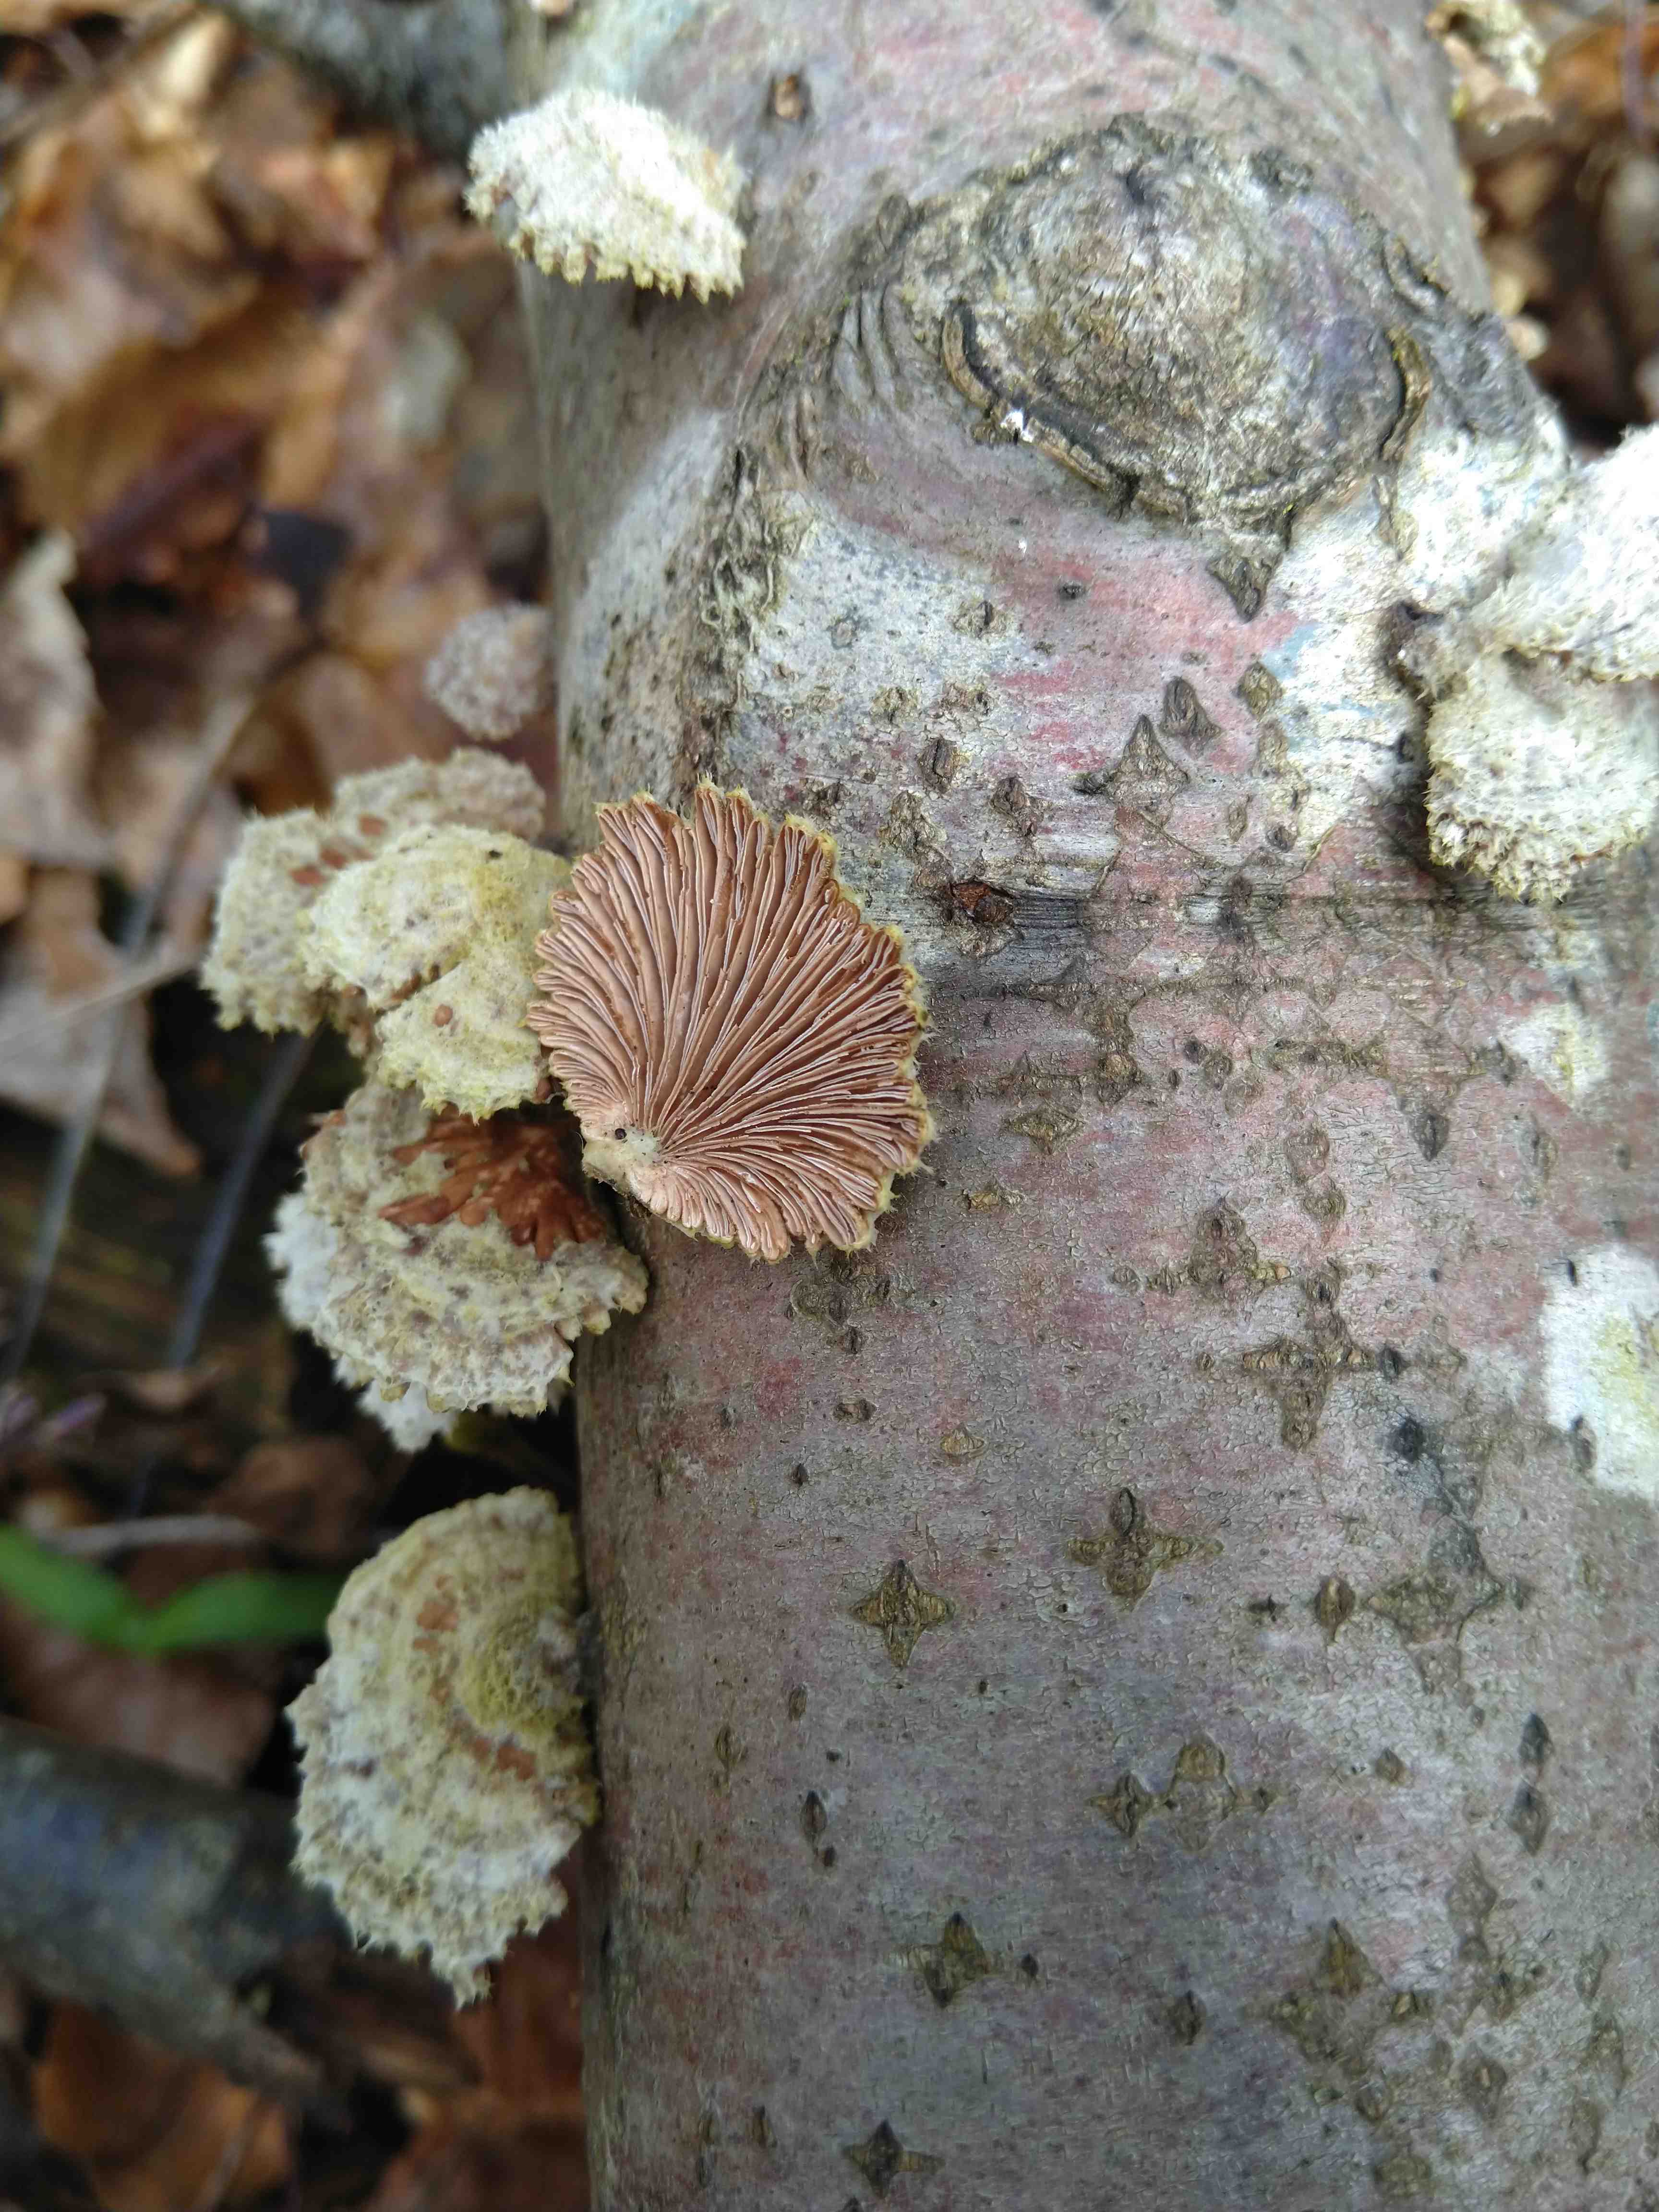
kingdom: Fungi
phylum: Basidiomycota
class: Agaricomycetes
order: Agaricales
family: Schizophyllaceae
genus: Schizophyllum
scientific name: Schizophyllum commune
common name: kløvblad
